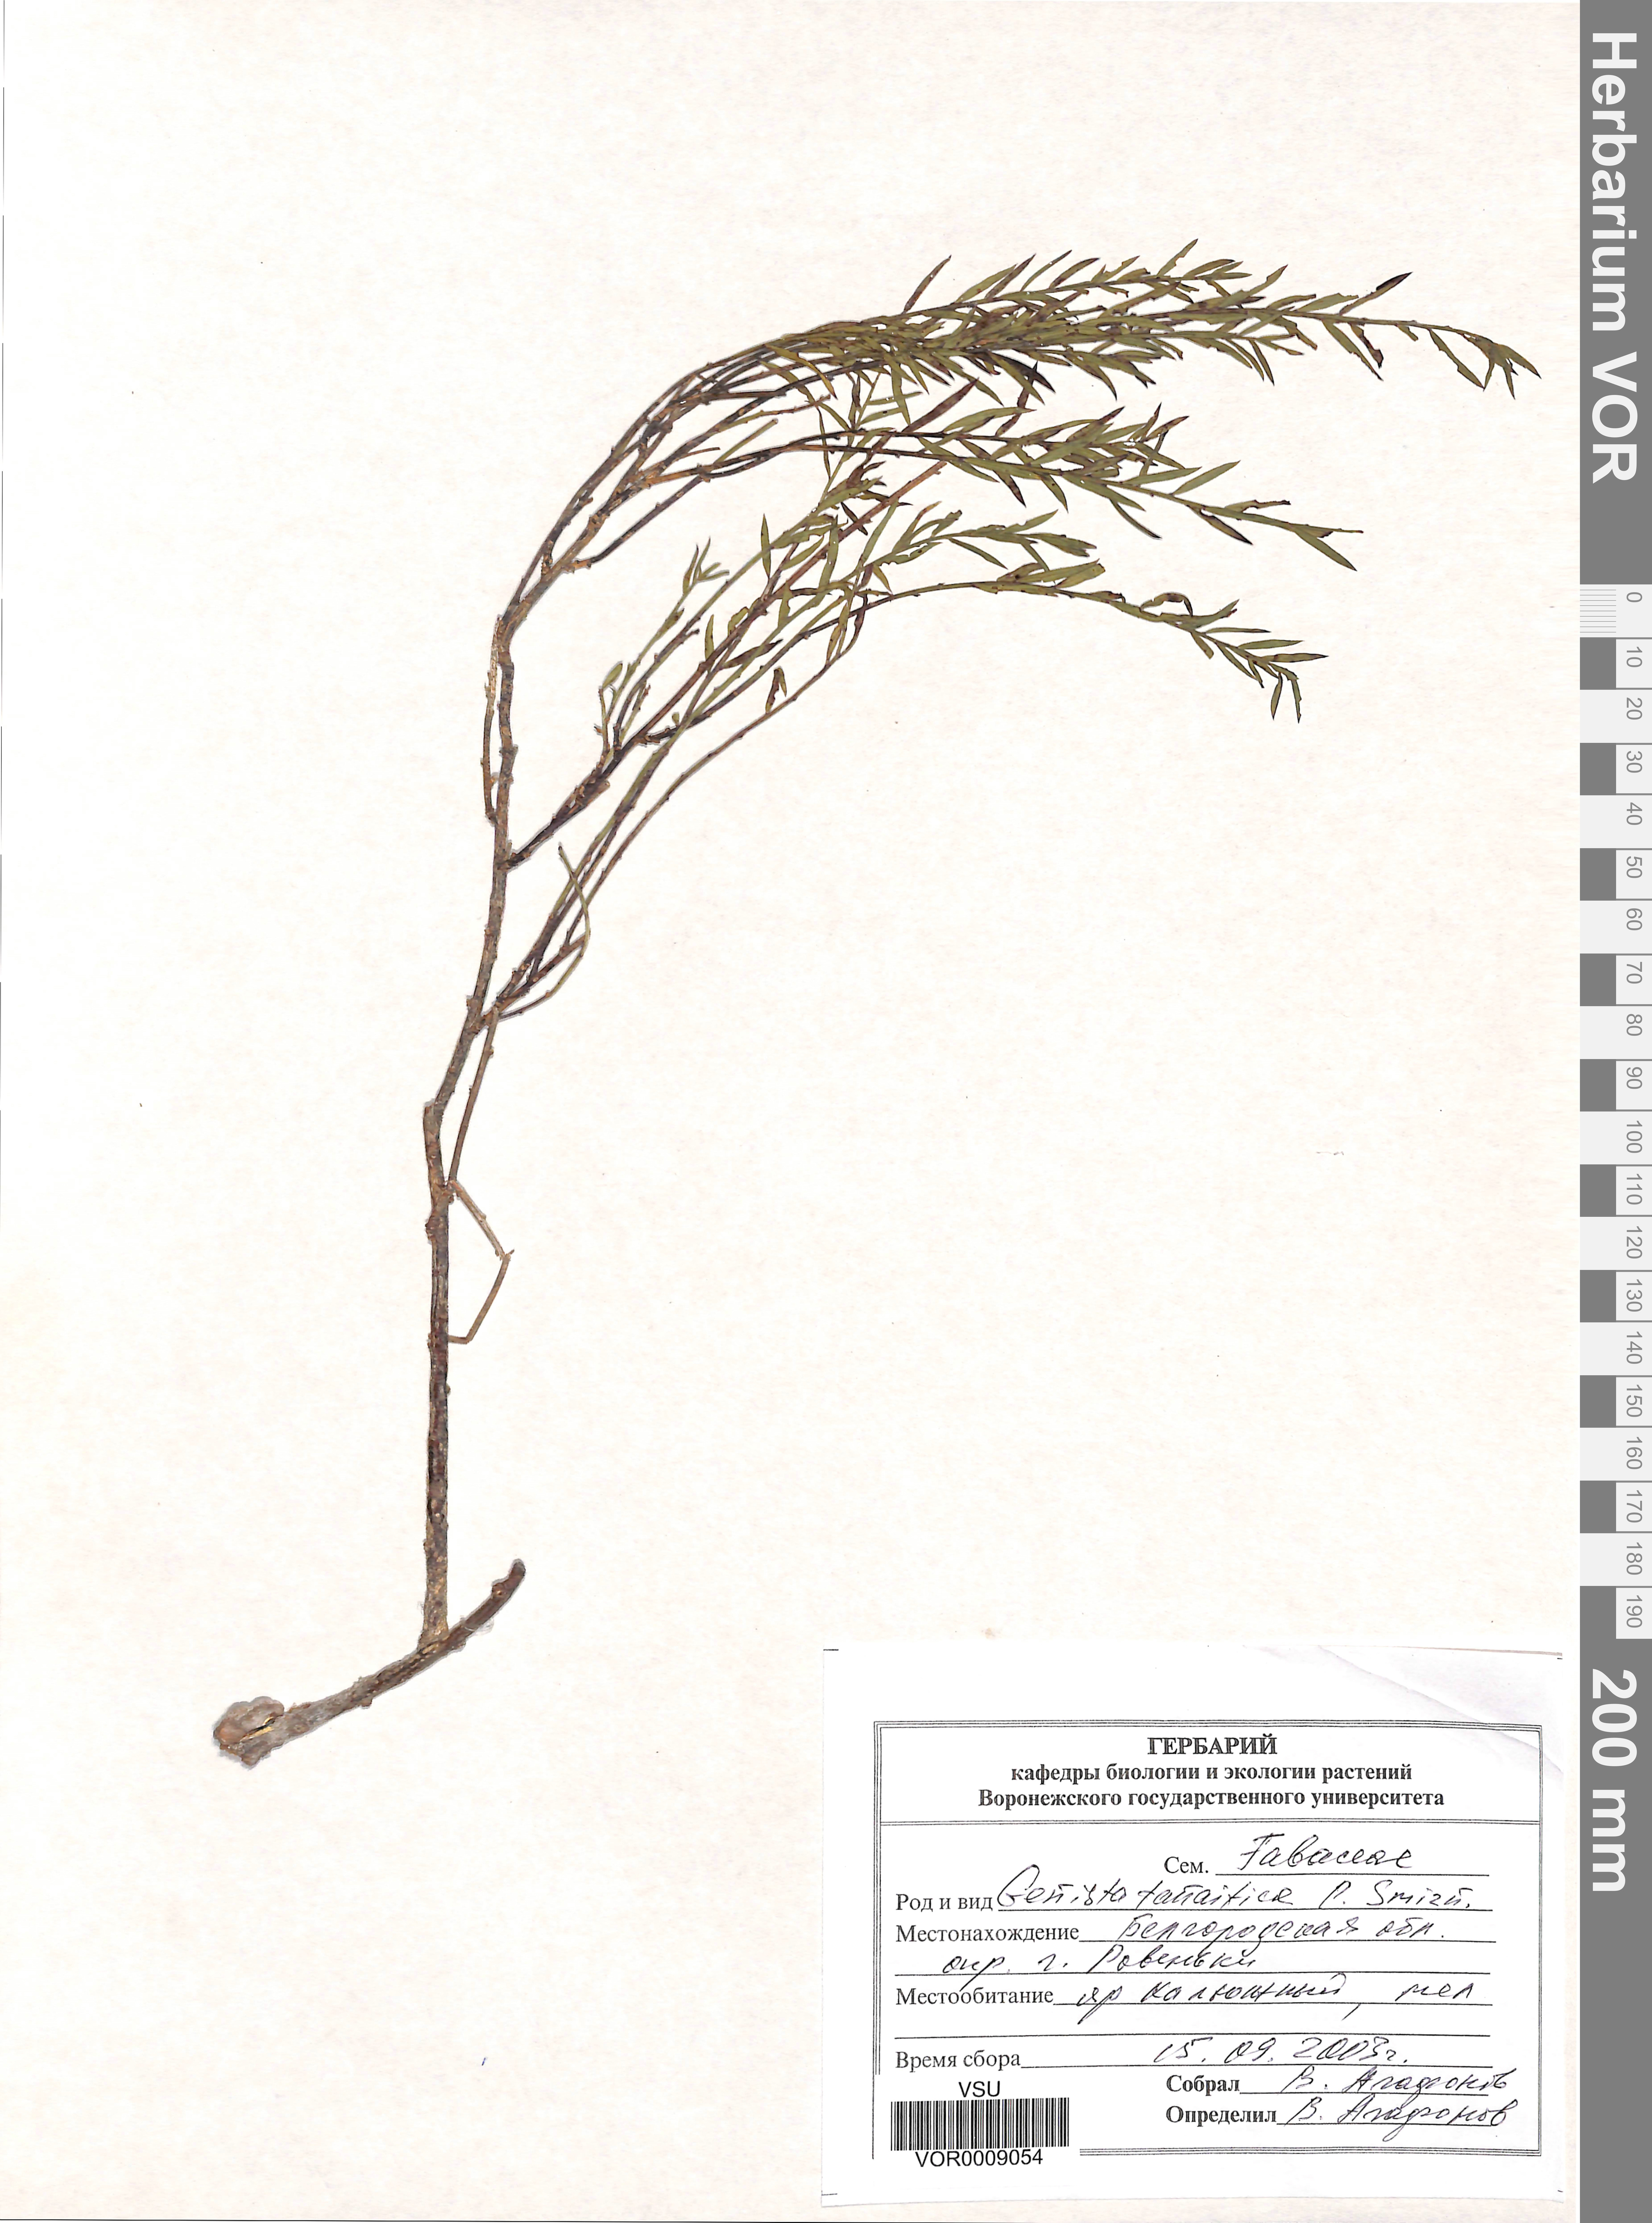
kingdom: Plantae
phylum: Tracheophyta
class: Magnoliopsida
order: Fabales
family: Fabaceae
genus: Genista
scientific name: Genista tinctoria
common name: Dyer's greenweed
